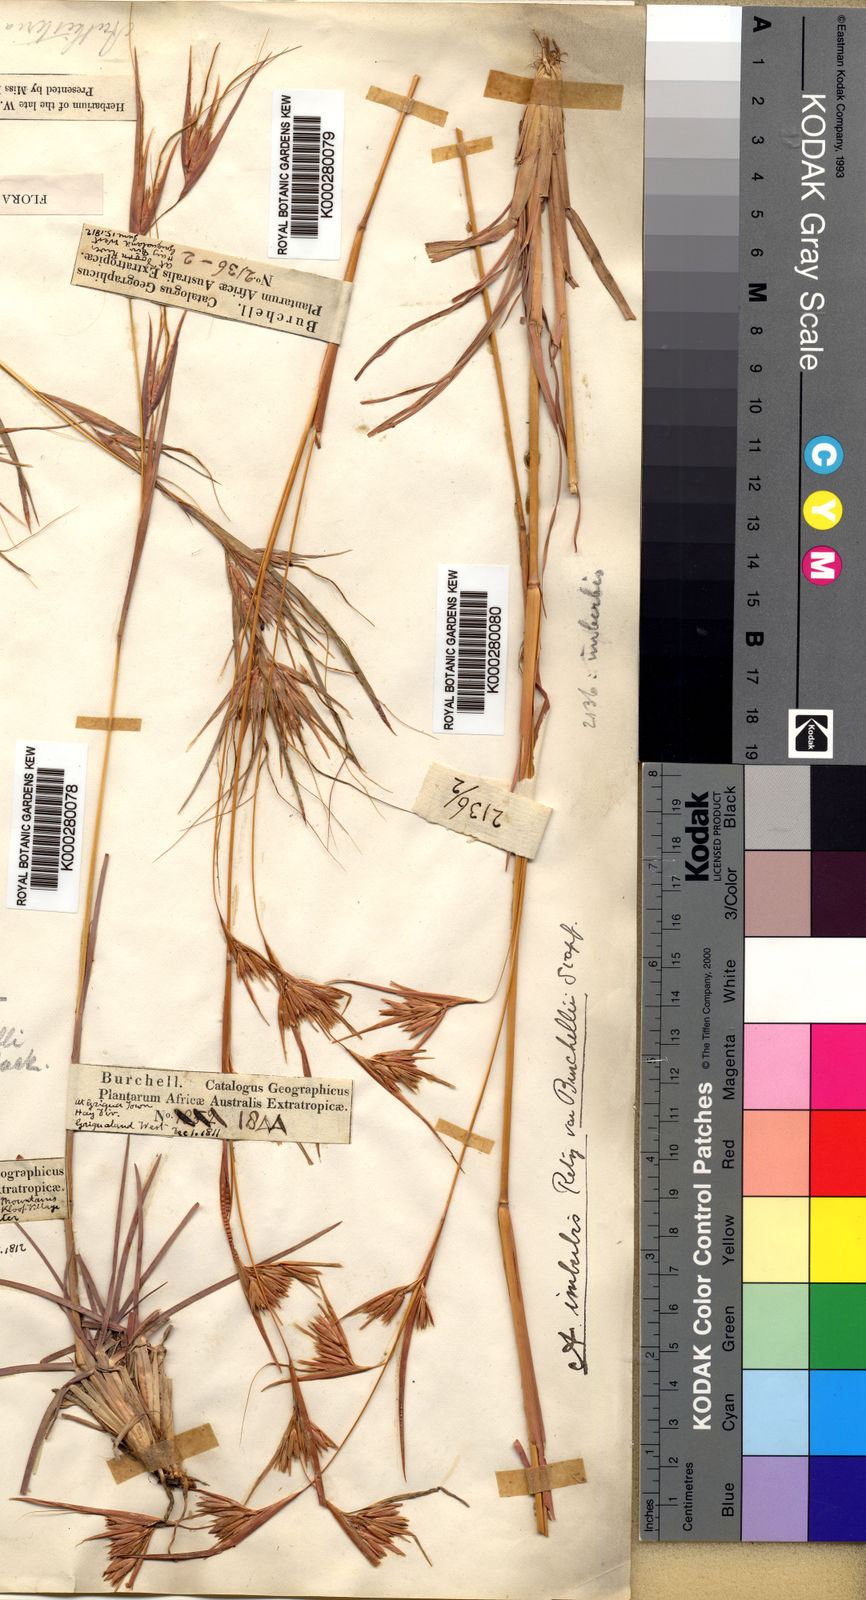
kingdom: Plantae
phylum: Tracheophyta
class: Liliopsida
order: Poales
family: Poaceae
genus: Themeda
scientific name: Themeda triandra
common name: Kangaroo grass
